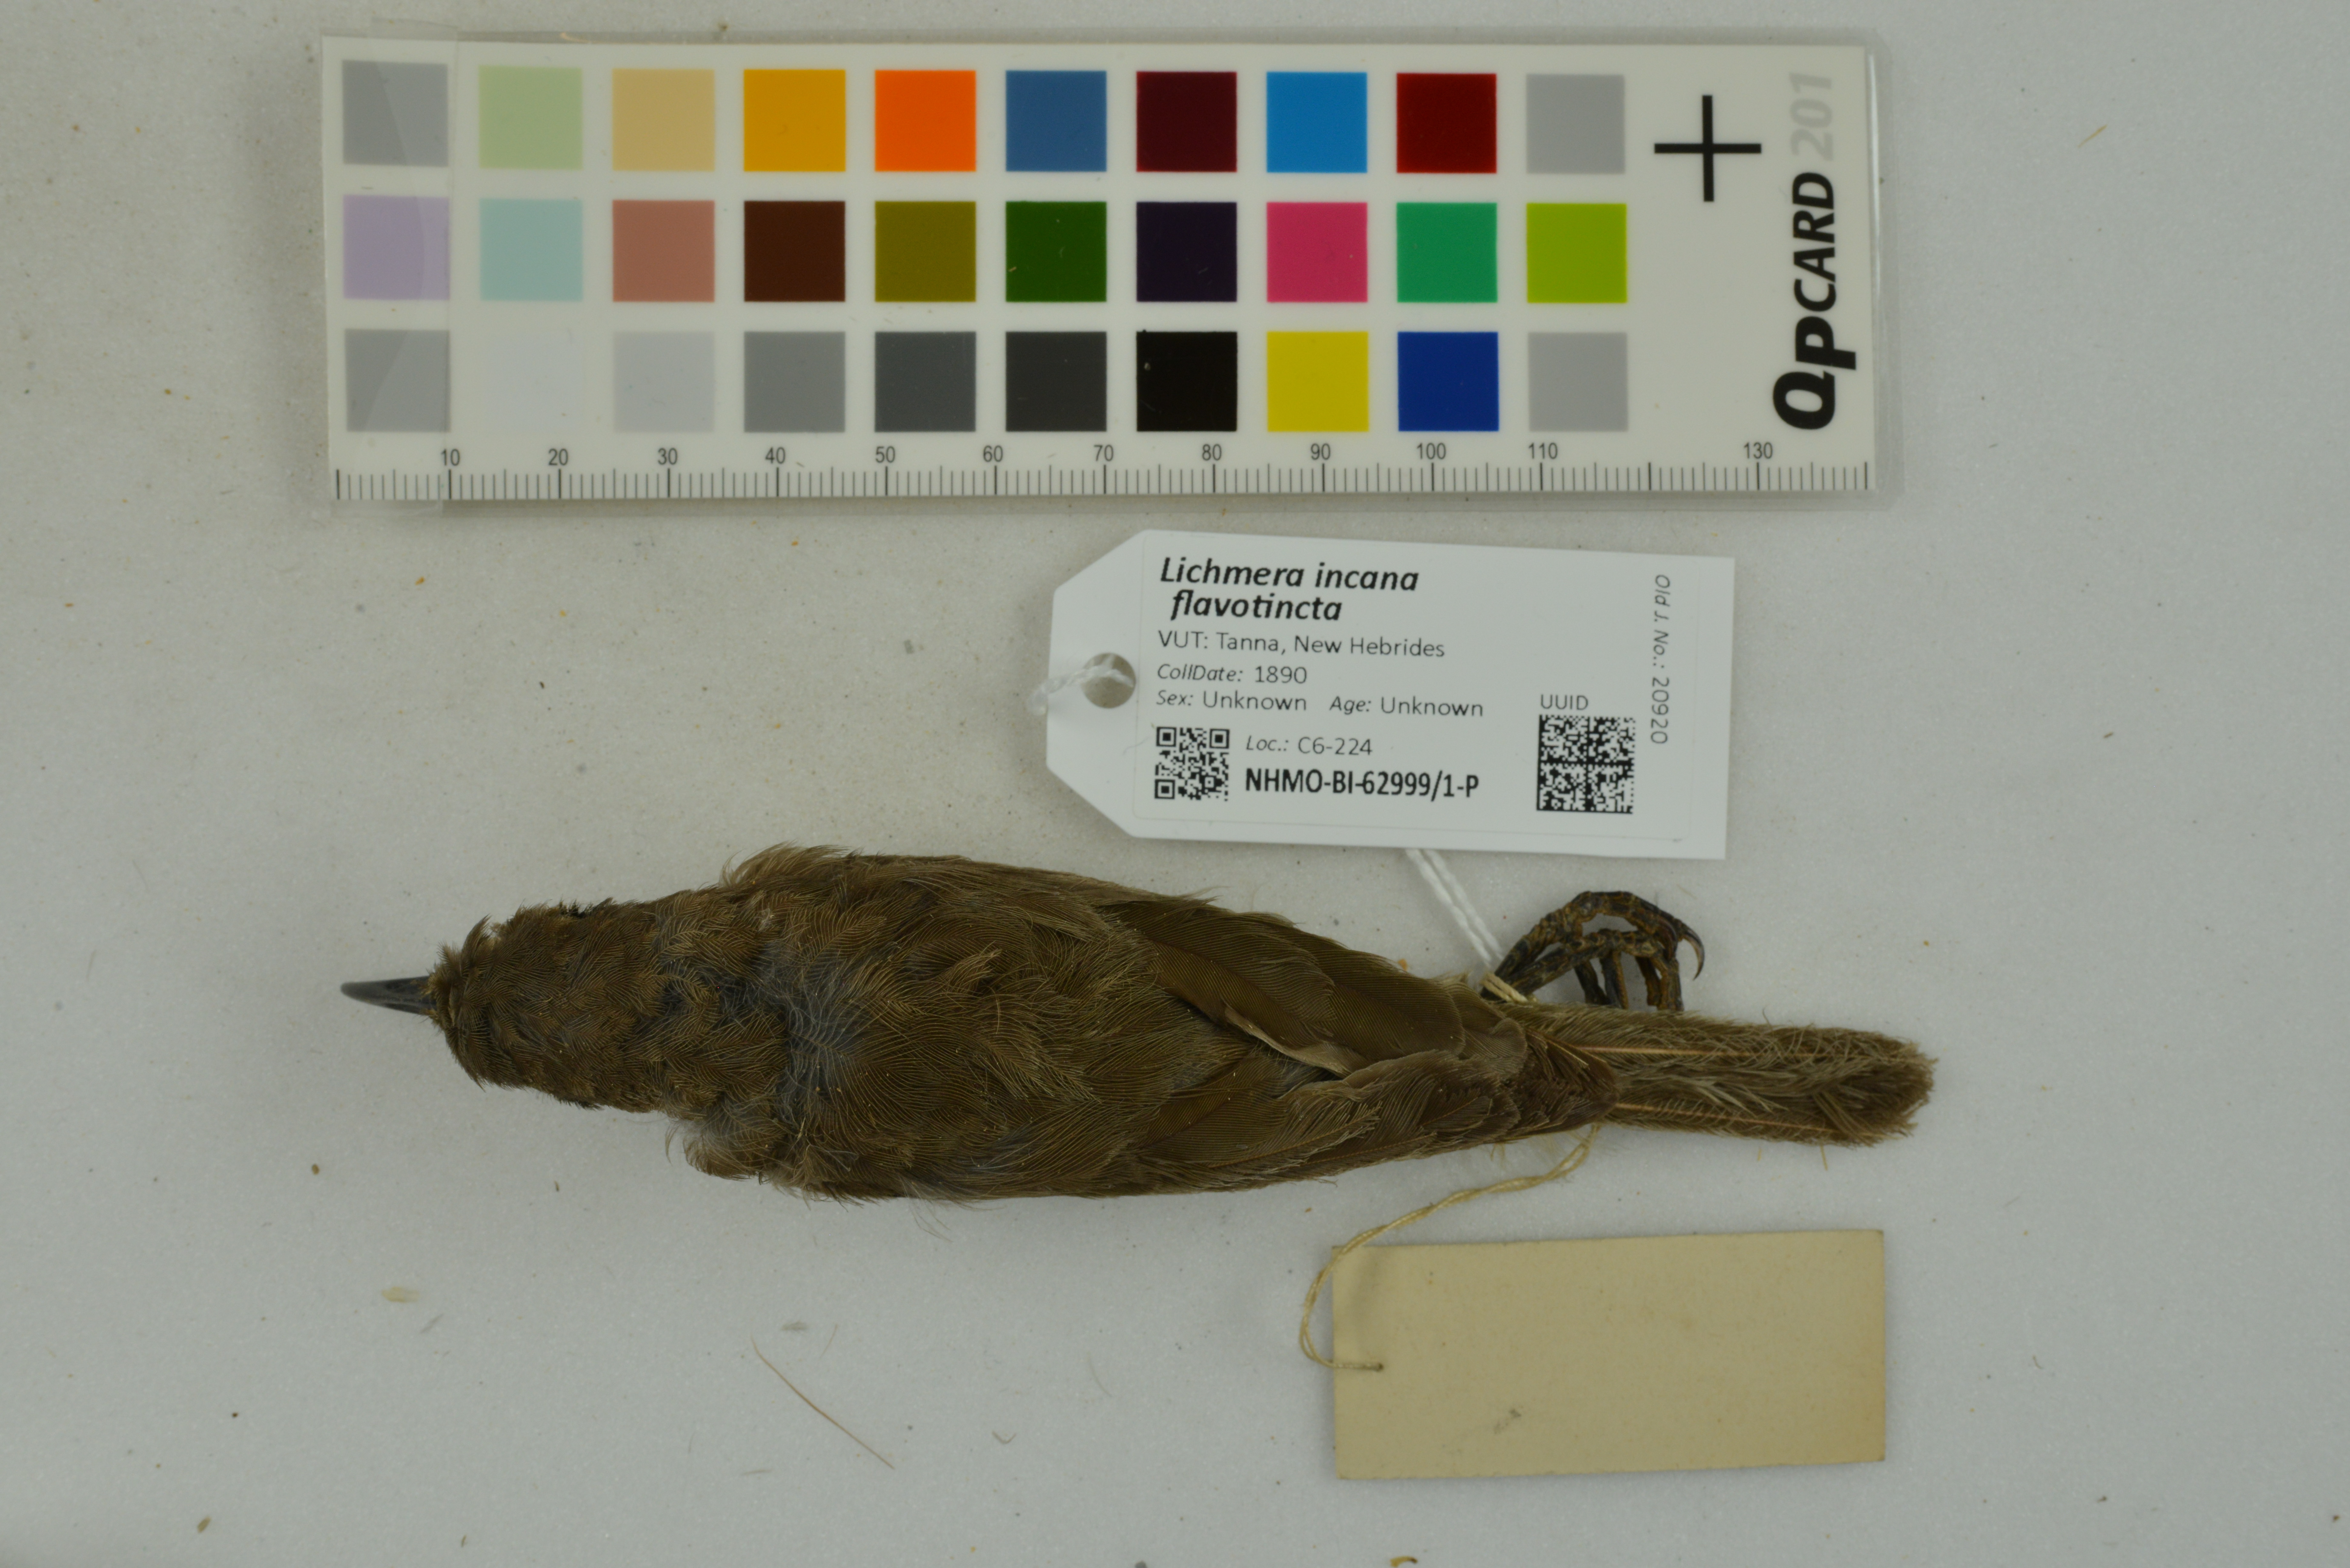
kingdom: Animalia
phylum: Chordata
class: Aves
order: Passeriformes
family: Meliphagidae
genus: Lichmera
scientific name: Lichmera incana
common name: Grey-eared honeyeater
